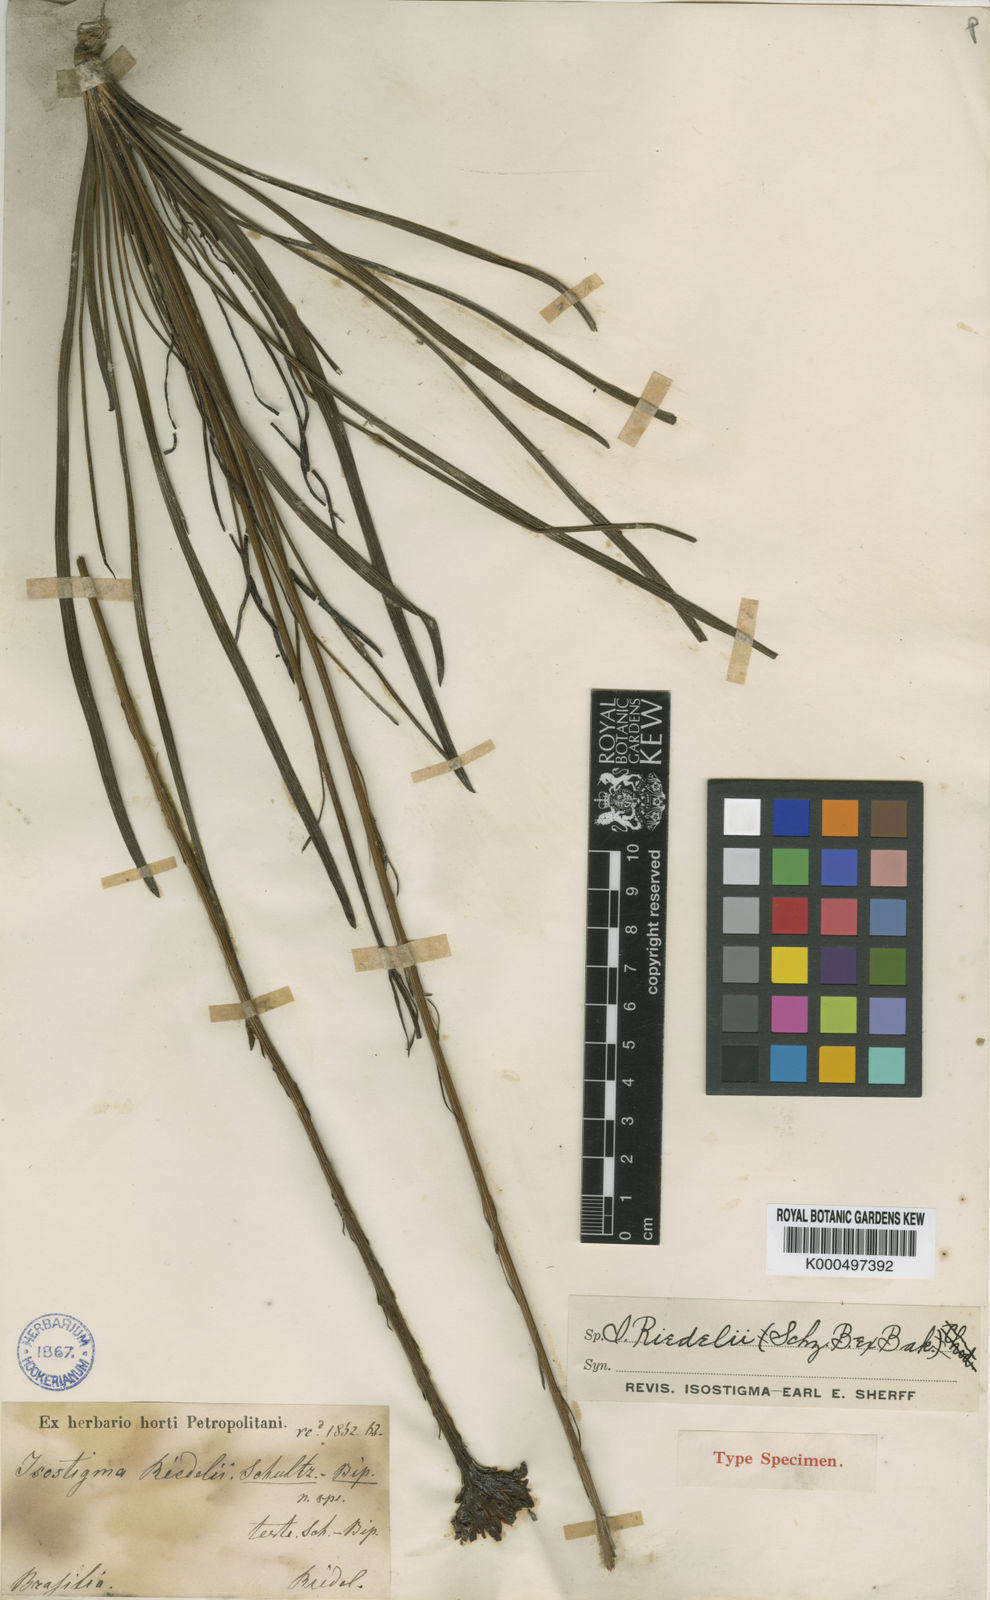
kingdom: Plantae
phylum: Tracheophyta
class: Magnoliopsida
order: Asterales
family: Asteraceae
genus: Isostigma
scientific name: Isostigma
